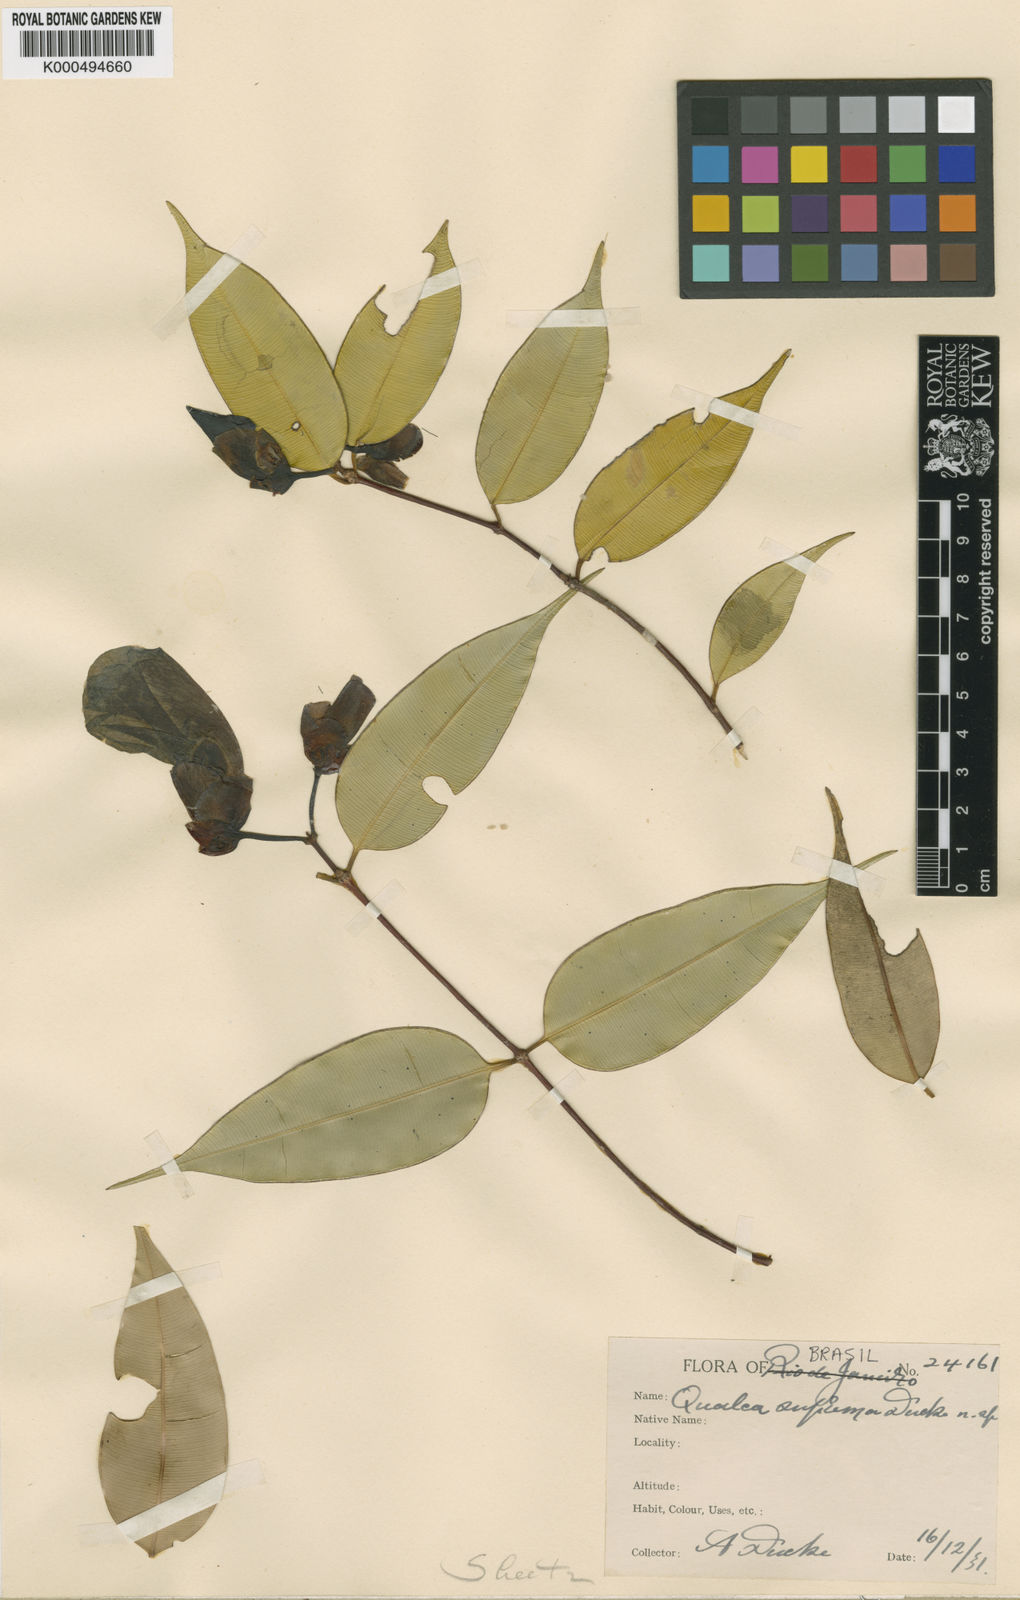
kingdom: Plantae
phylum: Tracheophyta
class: Magnoliopsida
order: Myrtales
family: Vochysiaceae
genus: Qualea
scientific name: Qualea suprema
